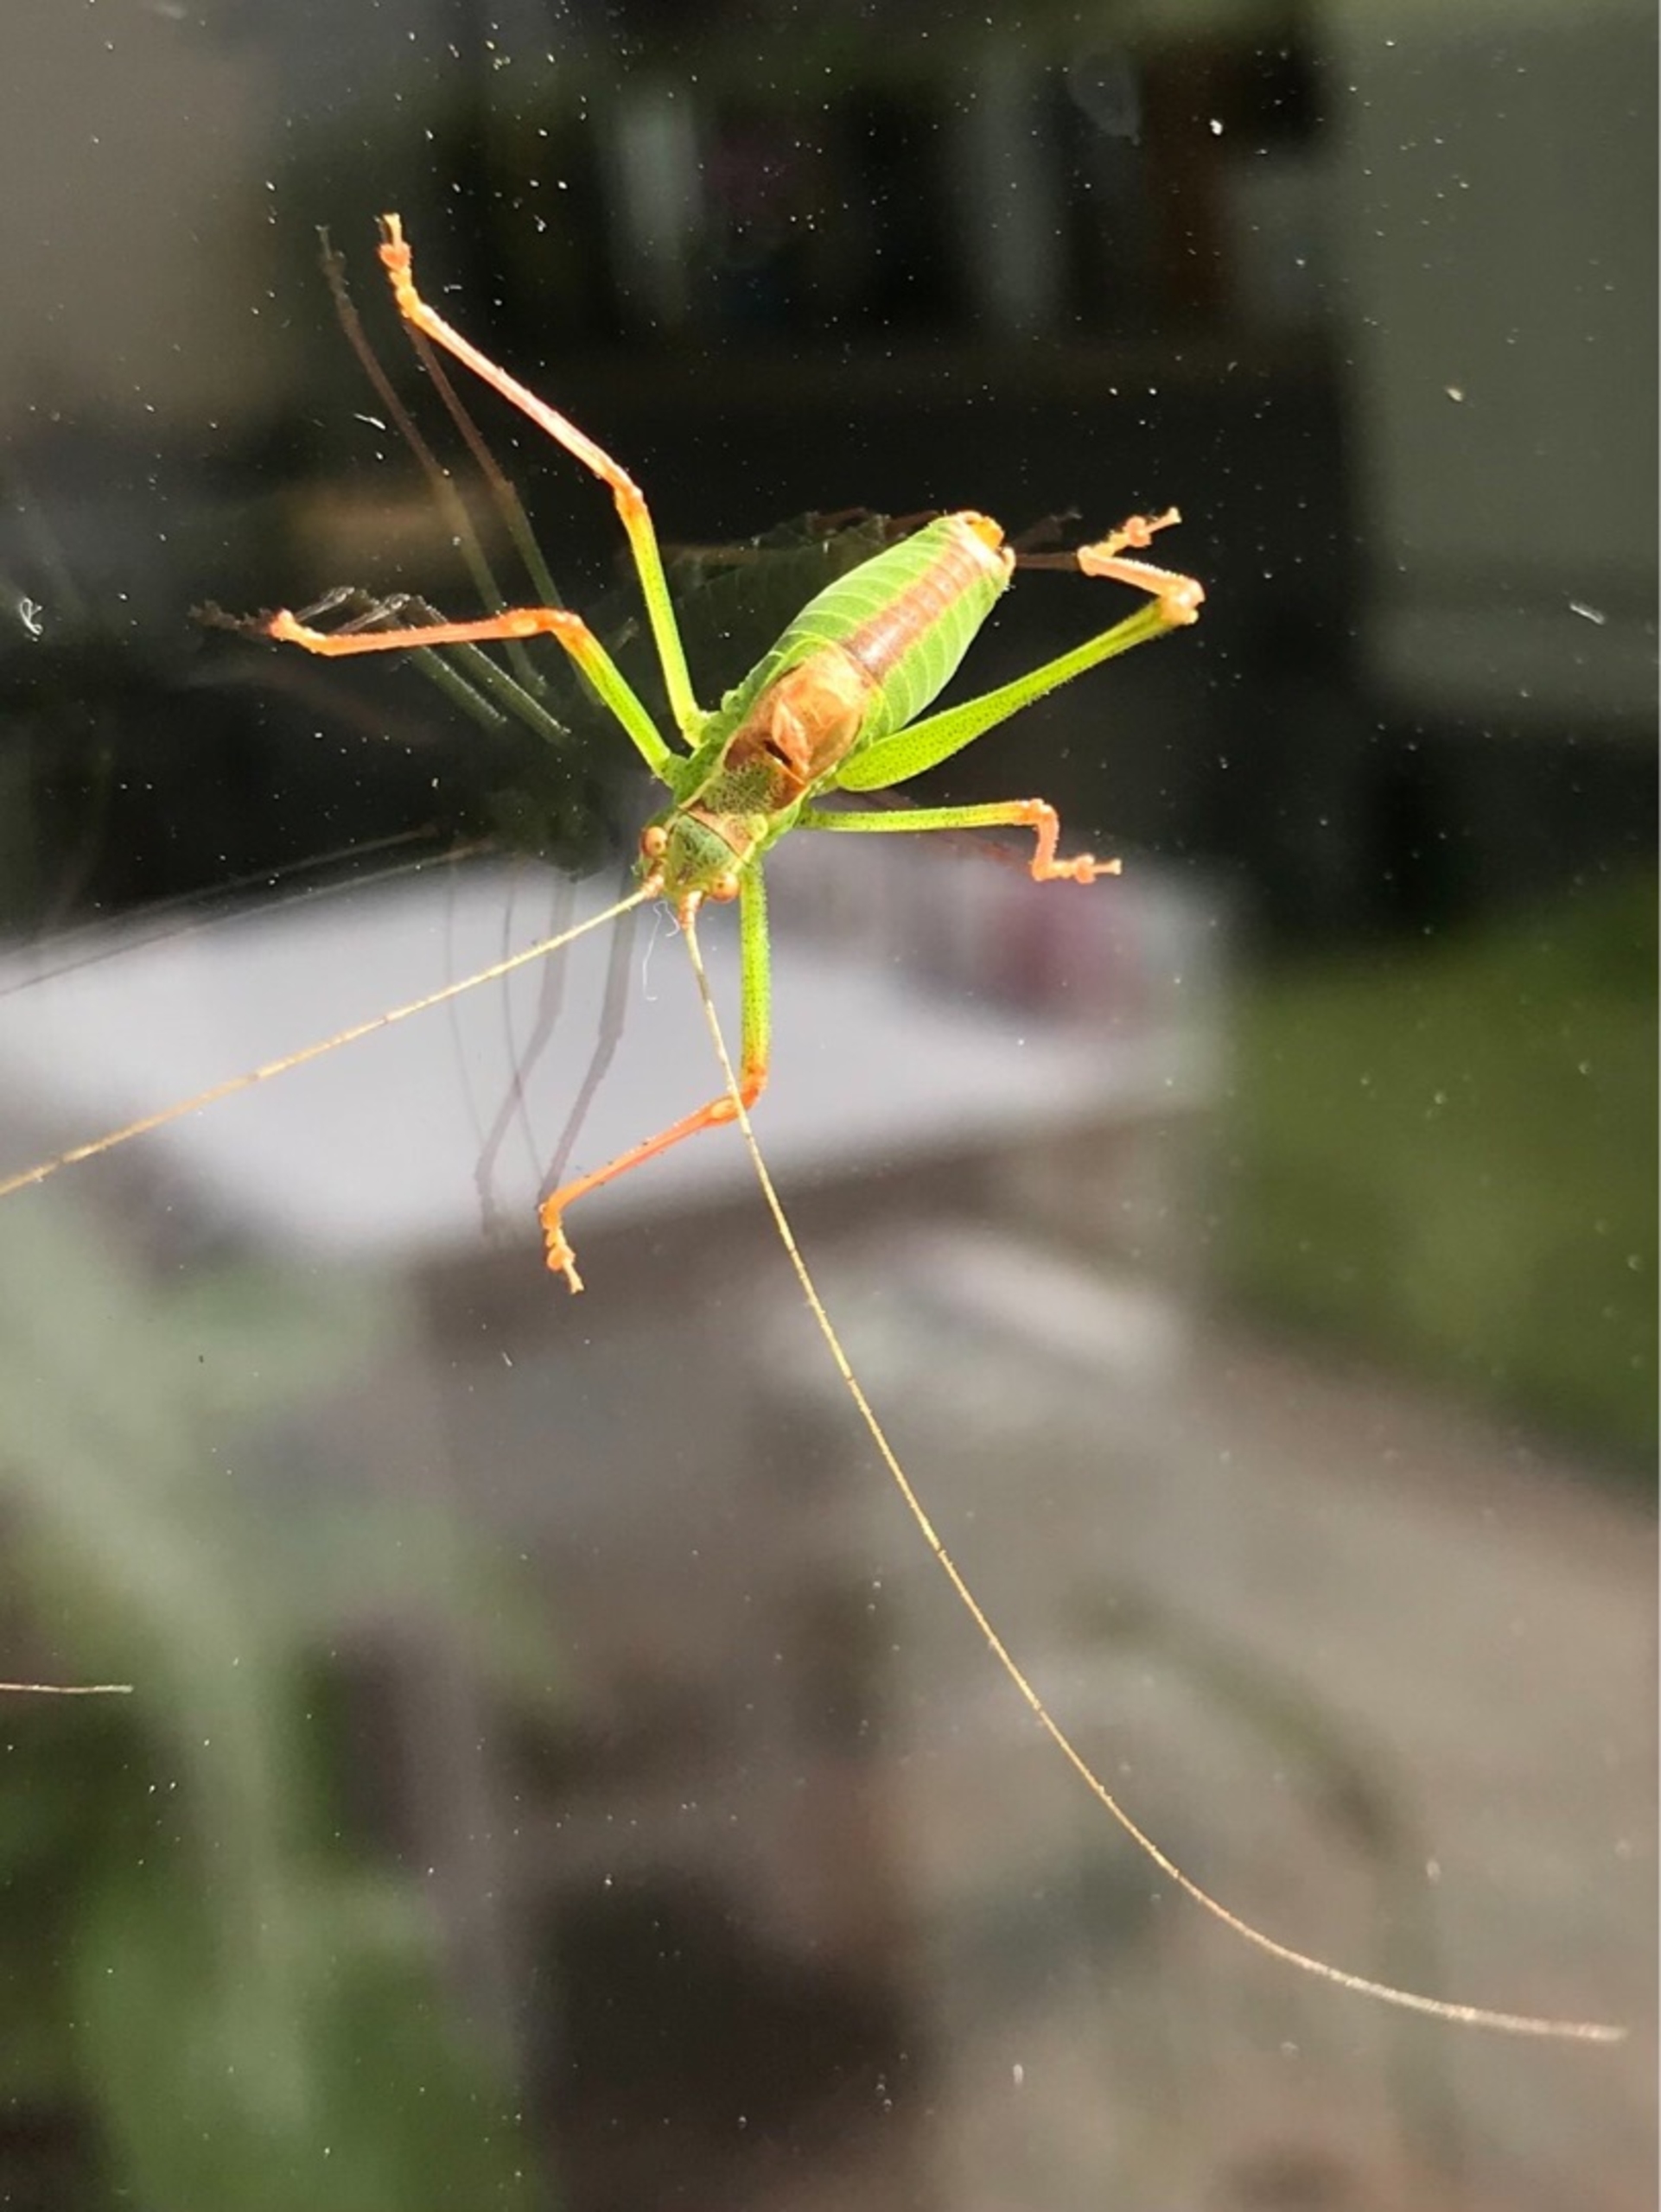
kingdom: Animalia
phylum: Arthropoda
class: Insecta
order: Orthoptera
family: Tettigoniidae
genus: Leptophyes
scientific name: Leptophyes punctatissima
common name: Krumknivgræshoppe
